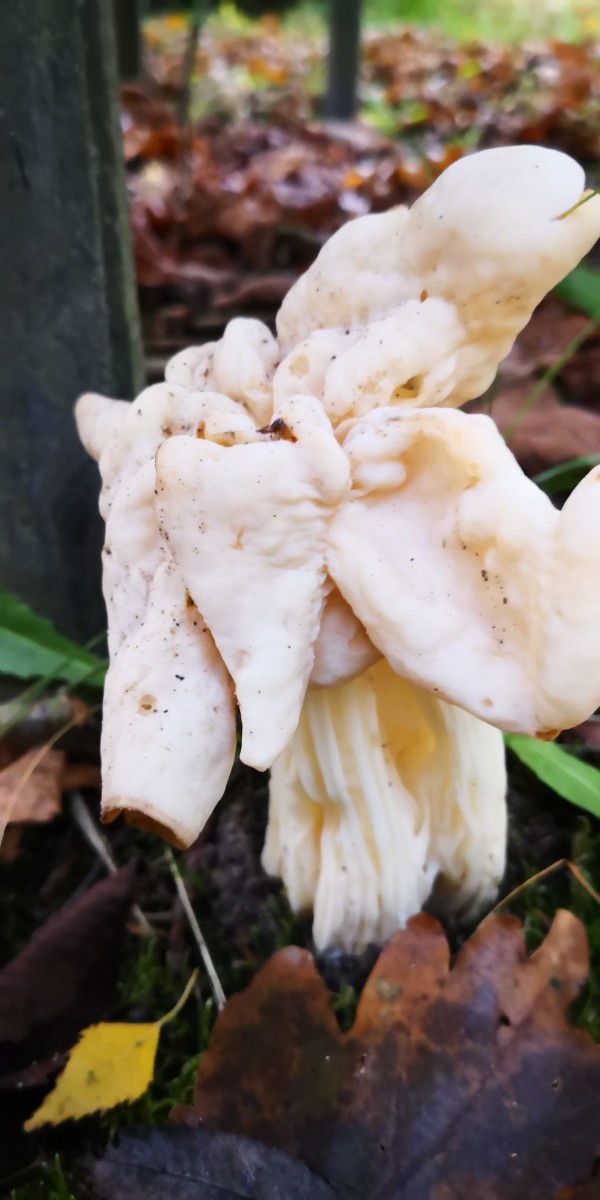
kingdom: Fungi
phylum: Ascomycota
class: Pezizomycetes
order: Pezizales
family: Helvellaceae
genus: Helvella
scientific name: Helvella crispa
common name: kruset foldhat
